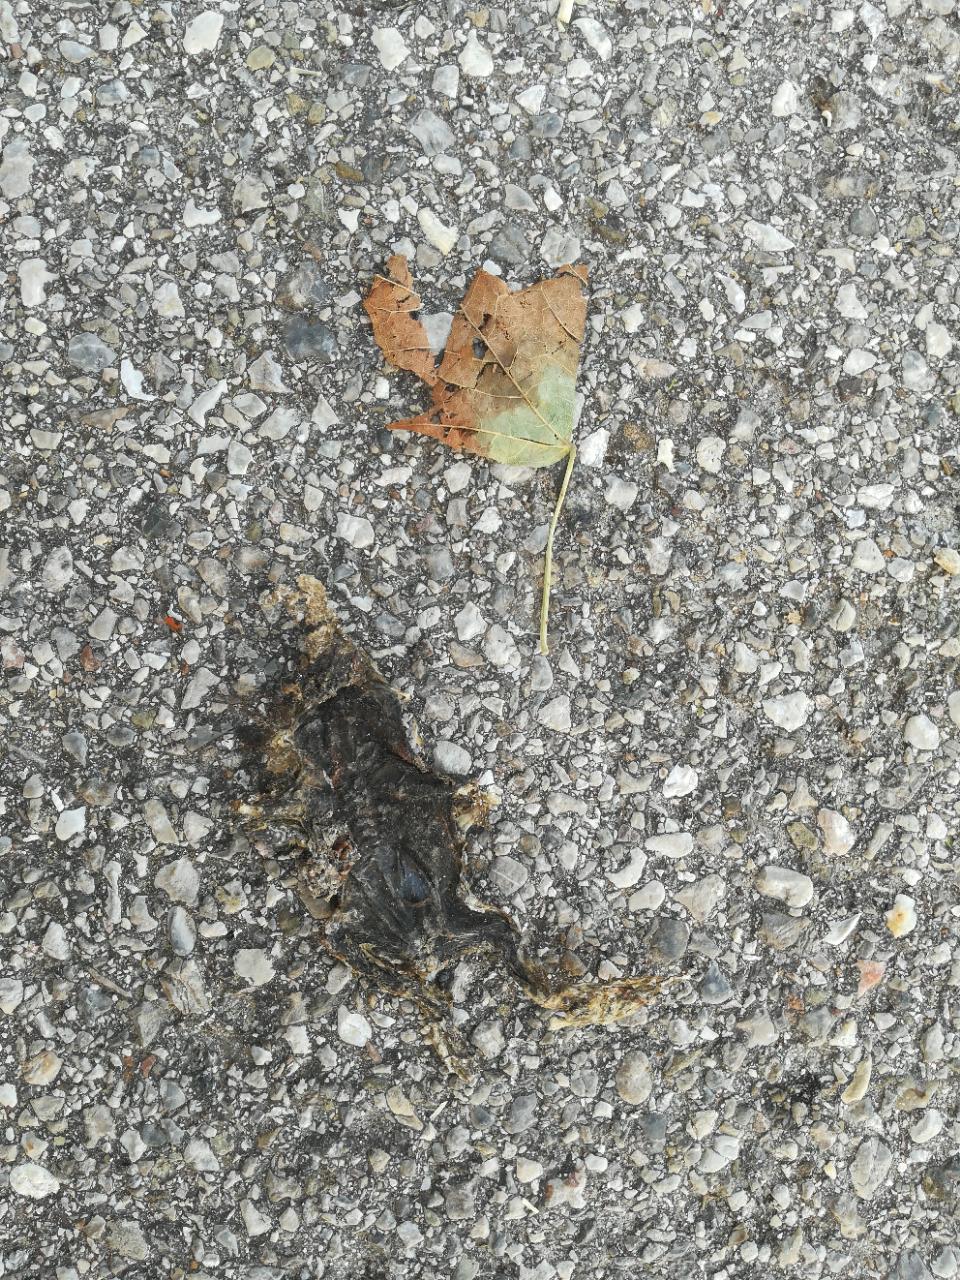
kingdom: Animalia
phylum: Chordata
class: Amphibia
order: Anura
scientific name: Anura
